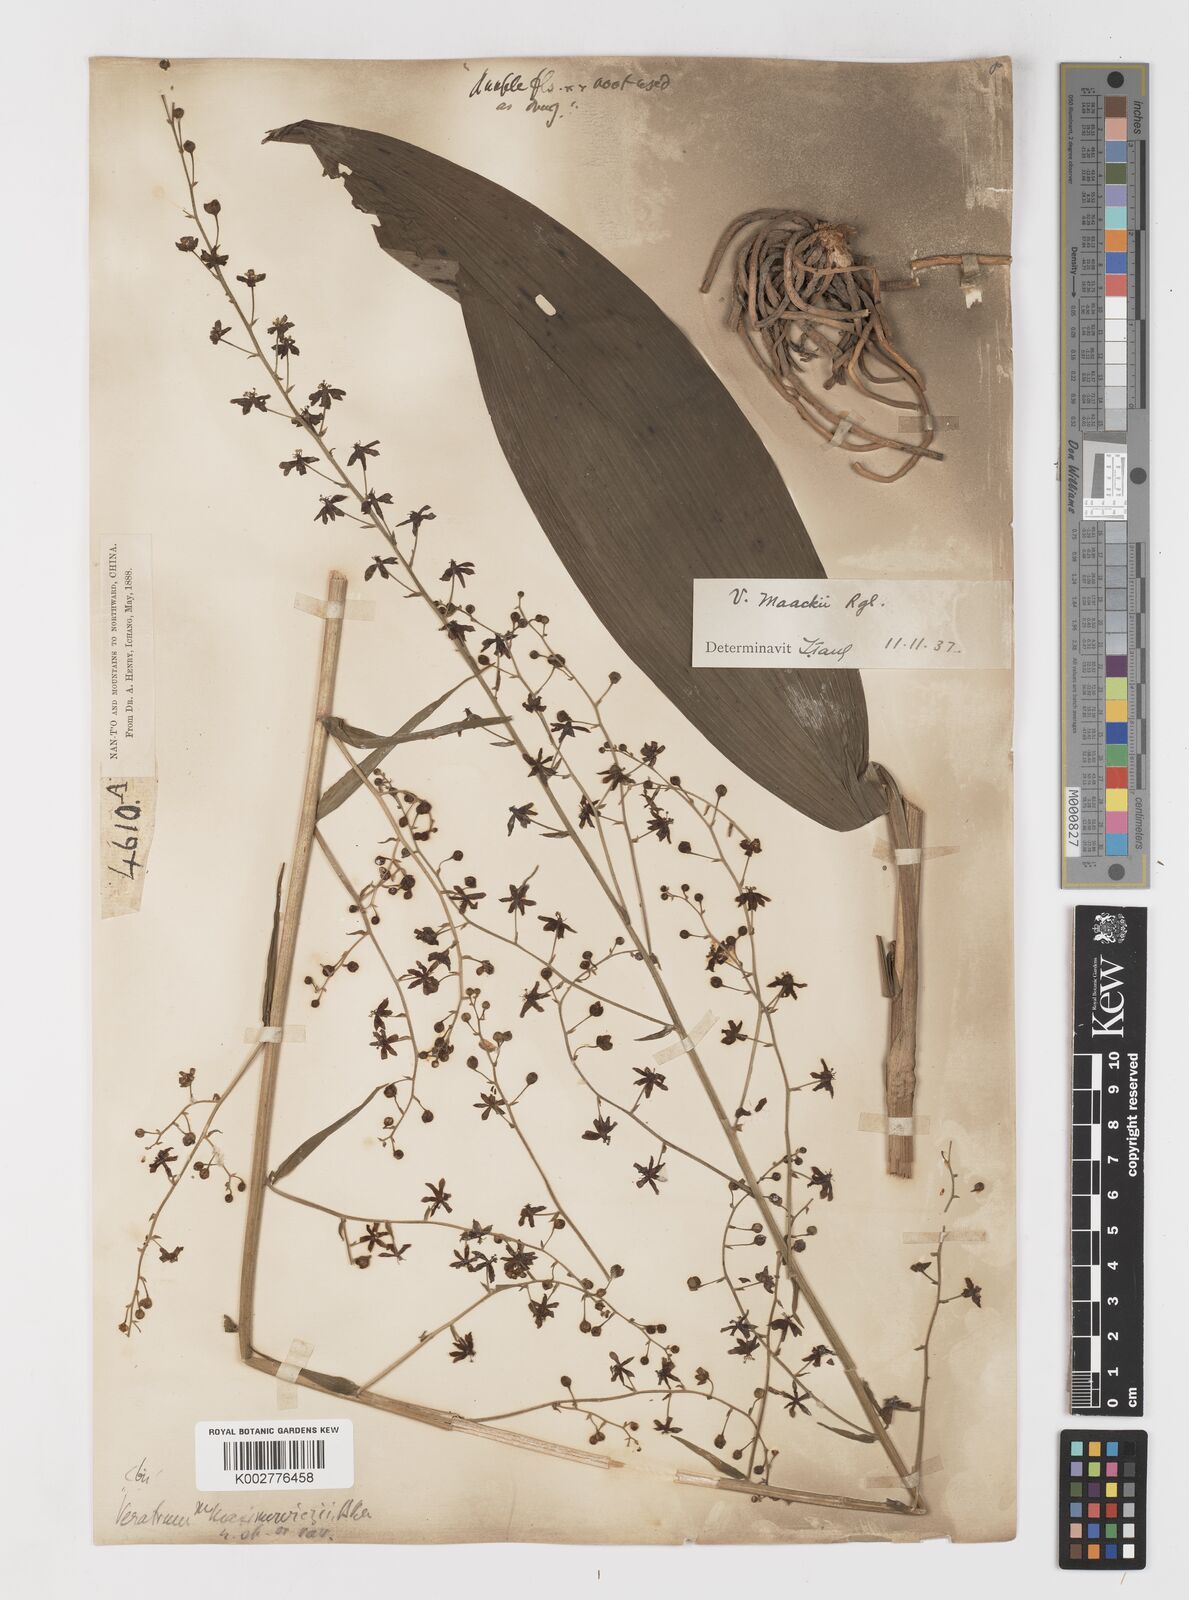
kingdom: Plantae
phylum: Tracheophyta
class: Liliopsida
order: Liliales
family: Melanthiaceae
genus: Veratrum
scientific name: Veratrum maackii
